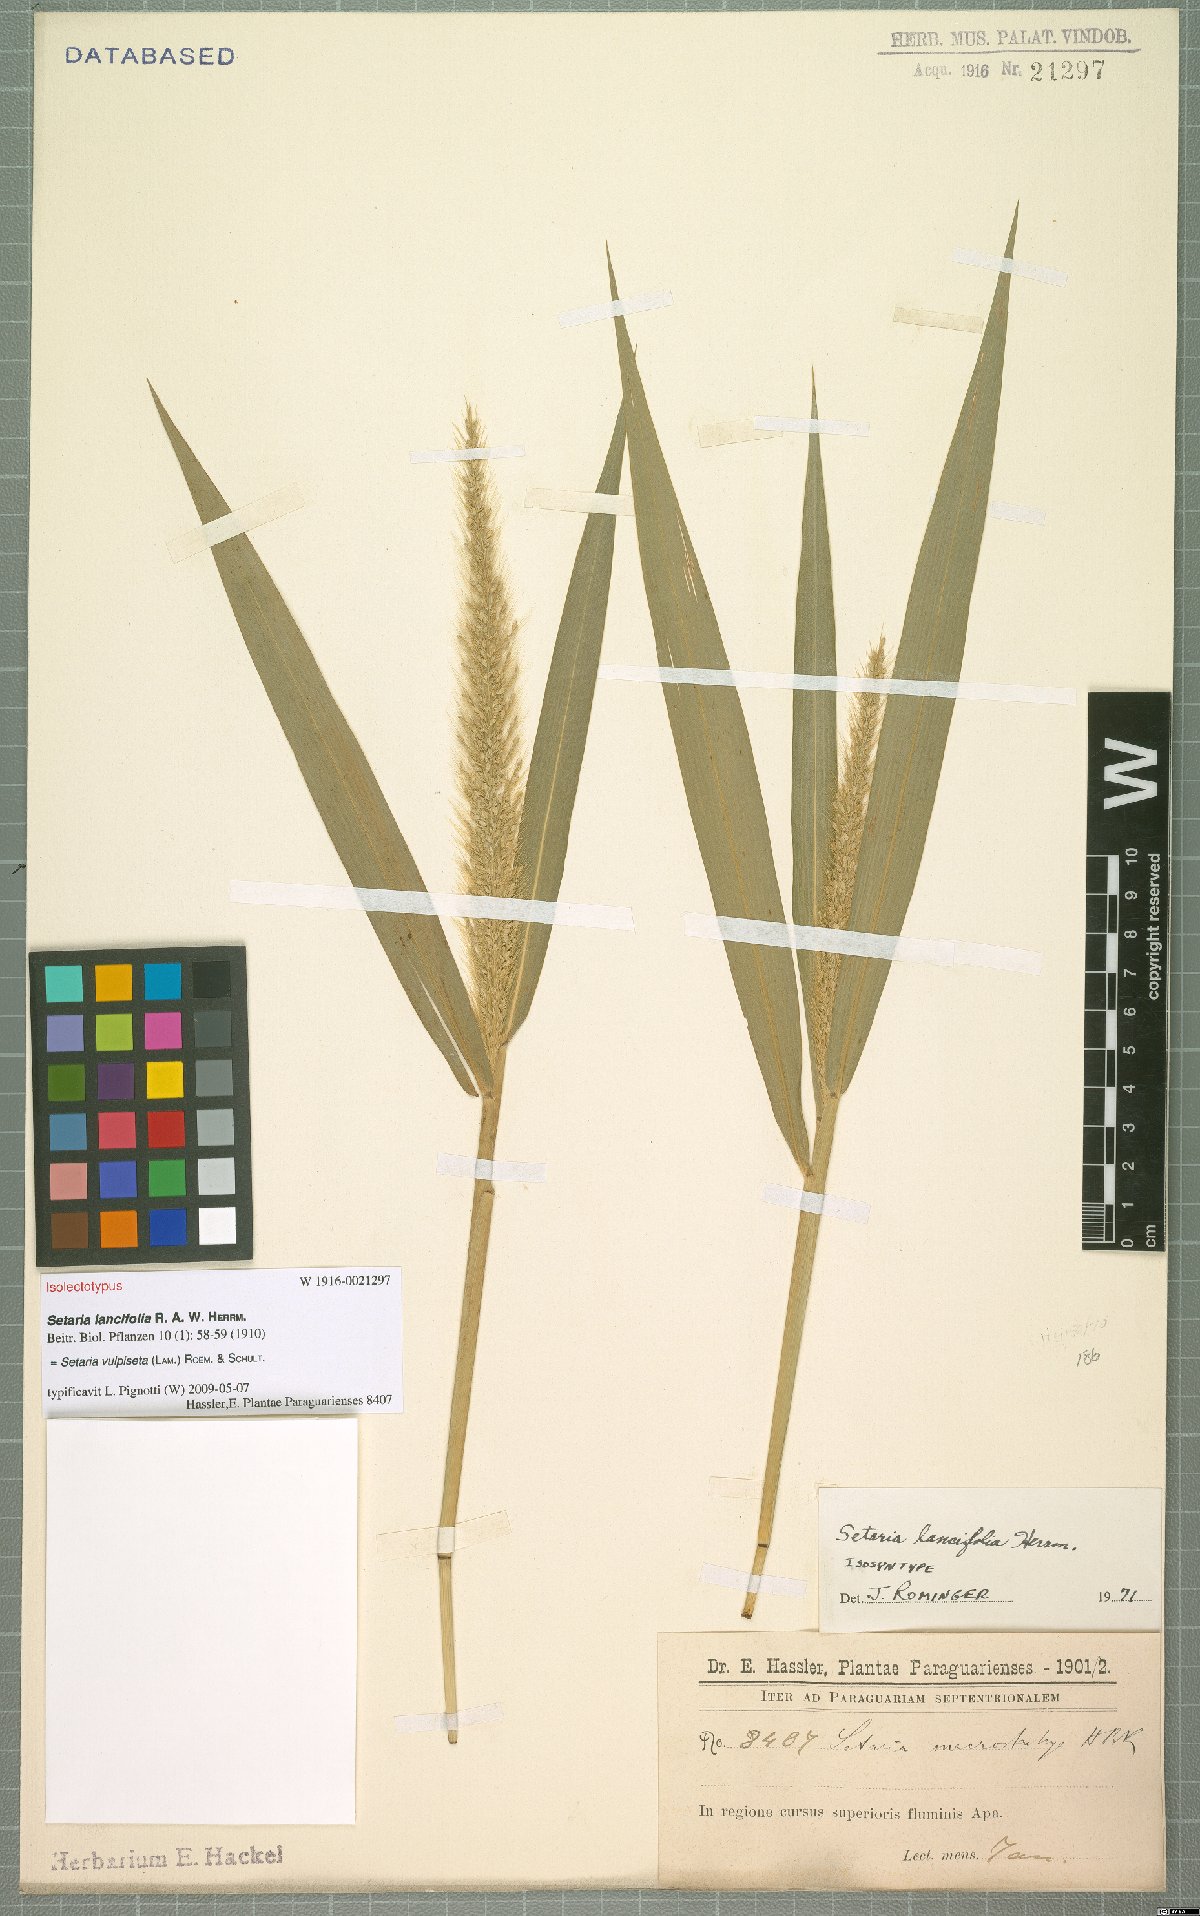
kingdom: Plantae
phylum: Tracheophyta
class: Liliopsida
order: Poales
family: Poaceae
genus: Setaria
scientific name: Setaria vulpiseta
